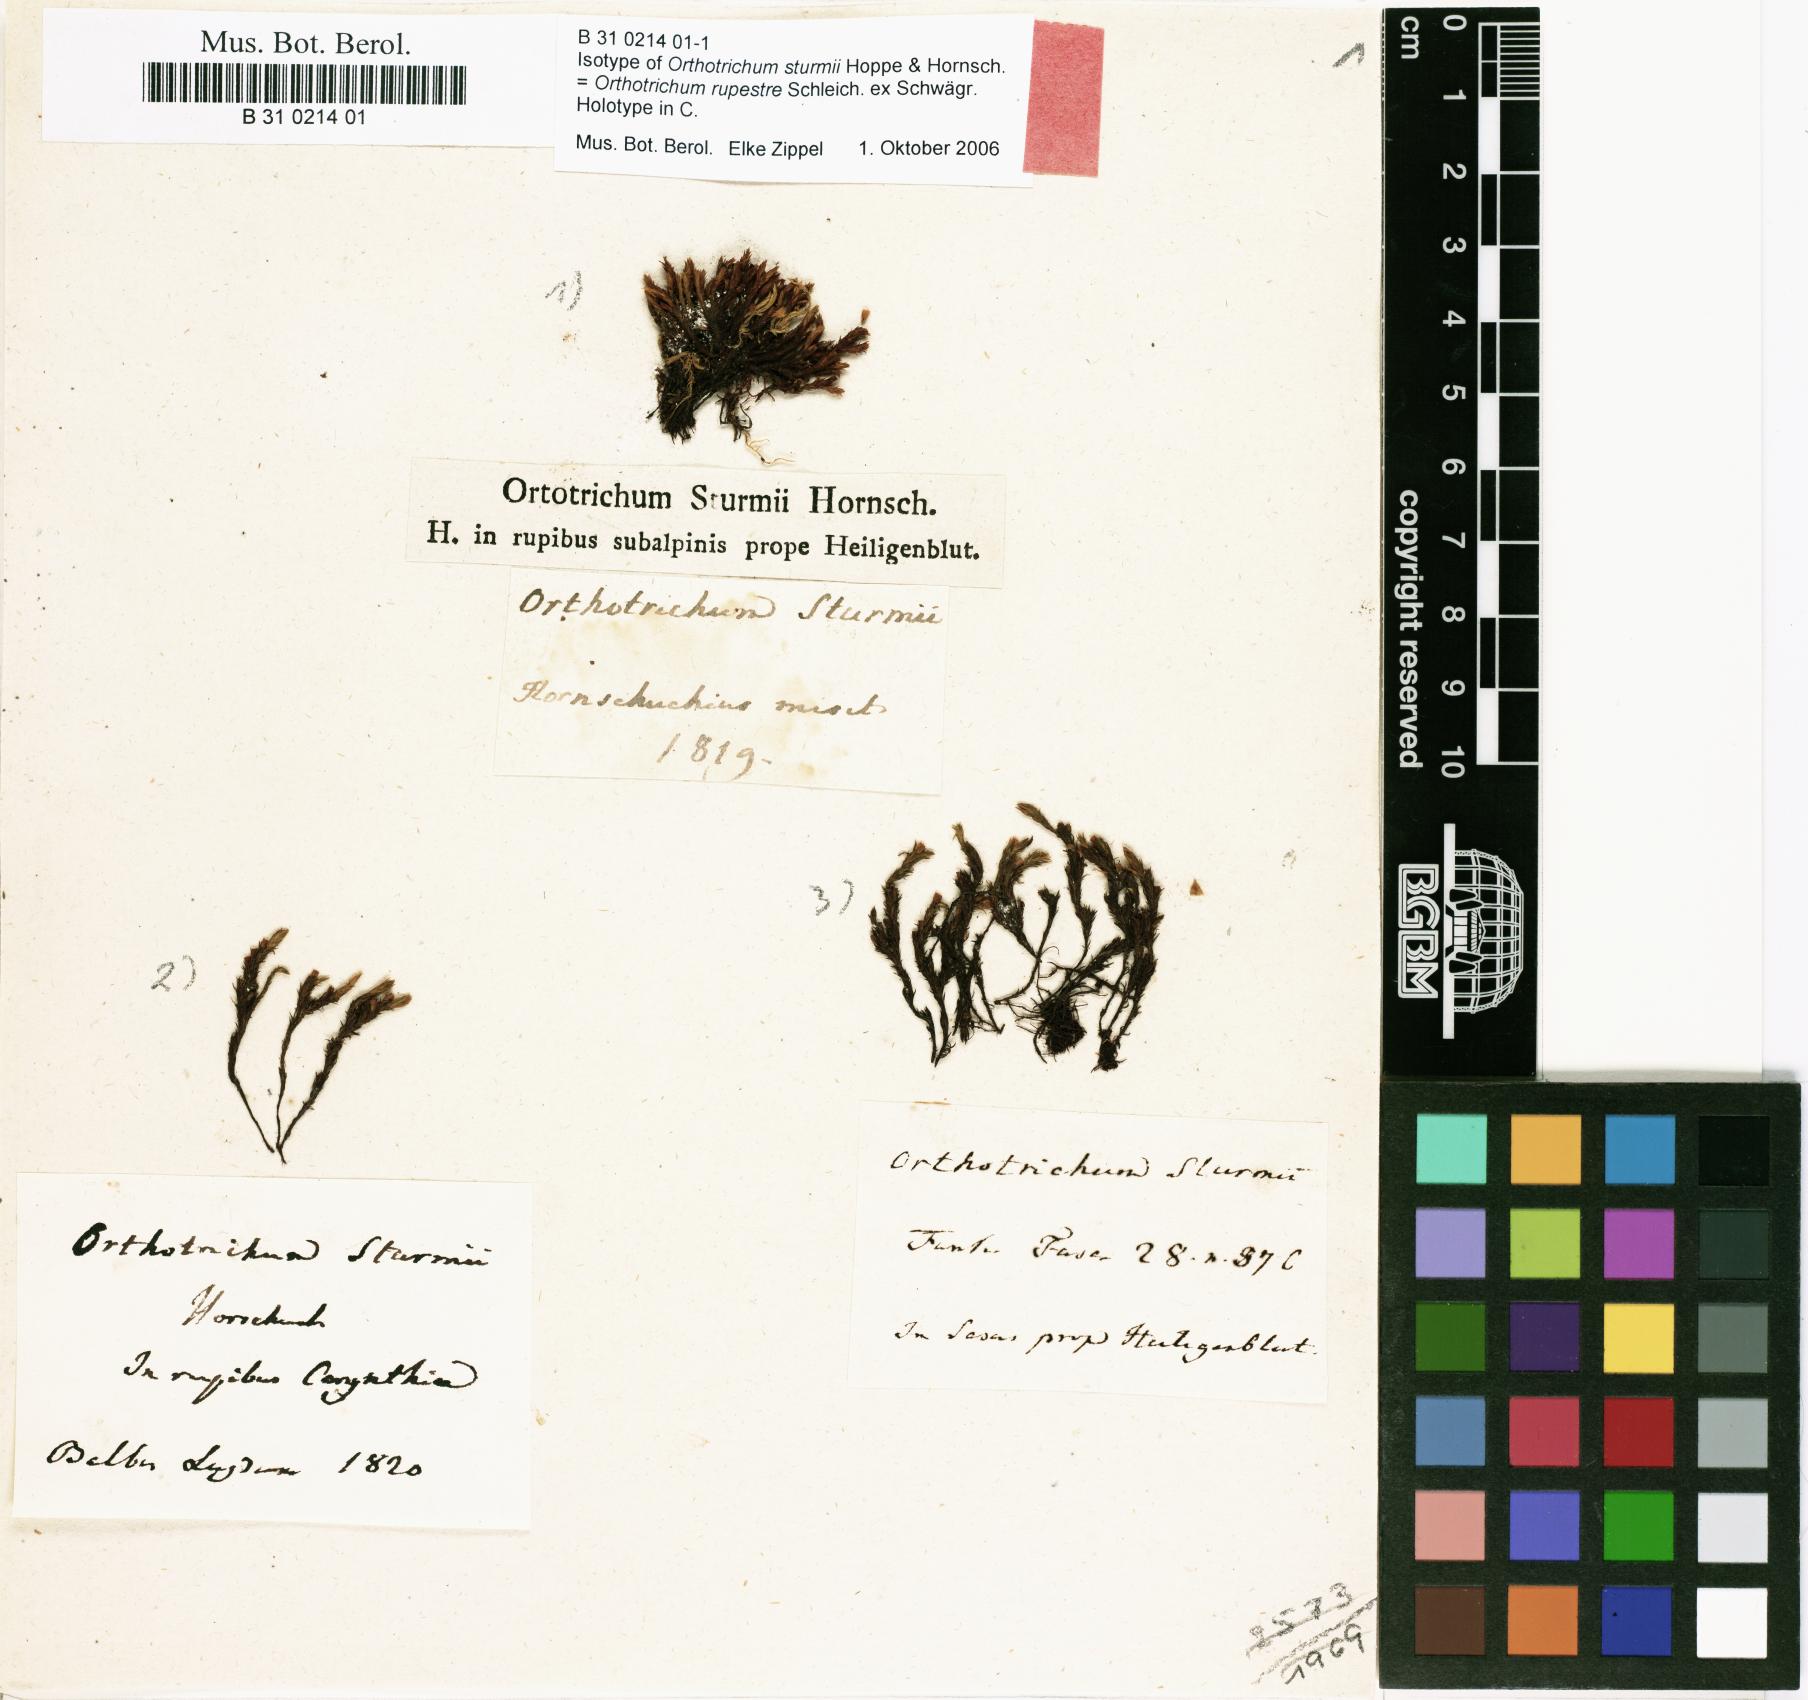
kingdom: Plantae
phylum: Bryophyta
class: Bryopsida
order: Orthotrichales
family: Orthotrichaceae
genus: Lewinskya
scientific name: Lewinskya rupestris
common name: Rock bristle-moss
